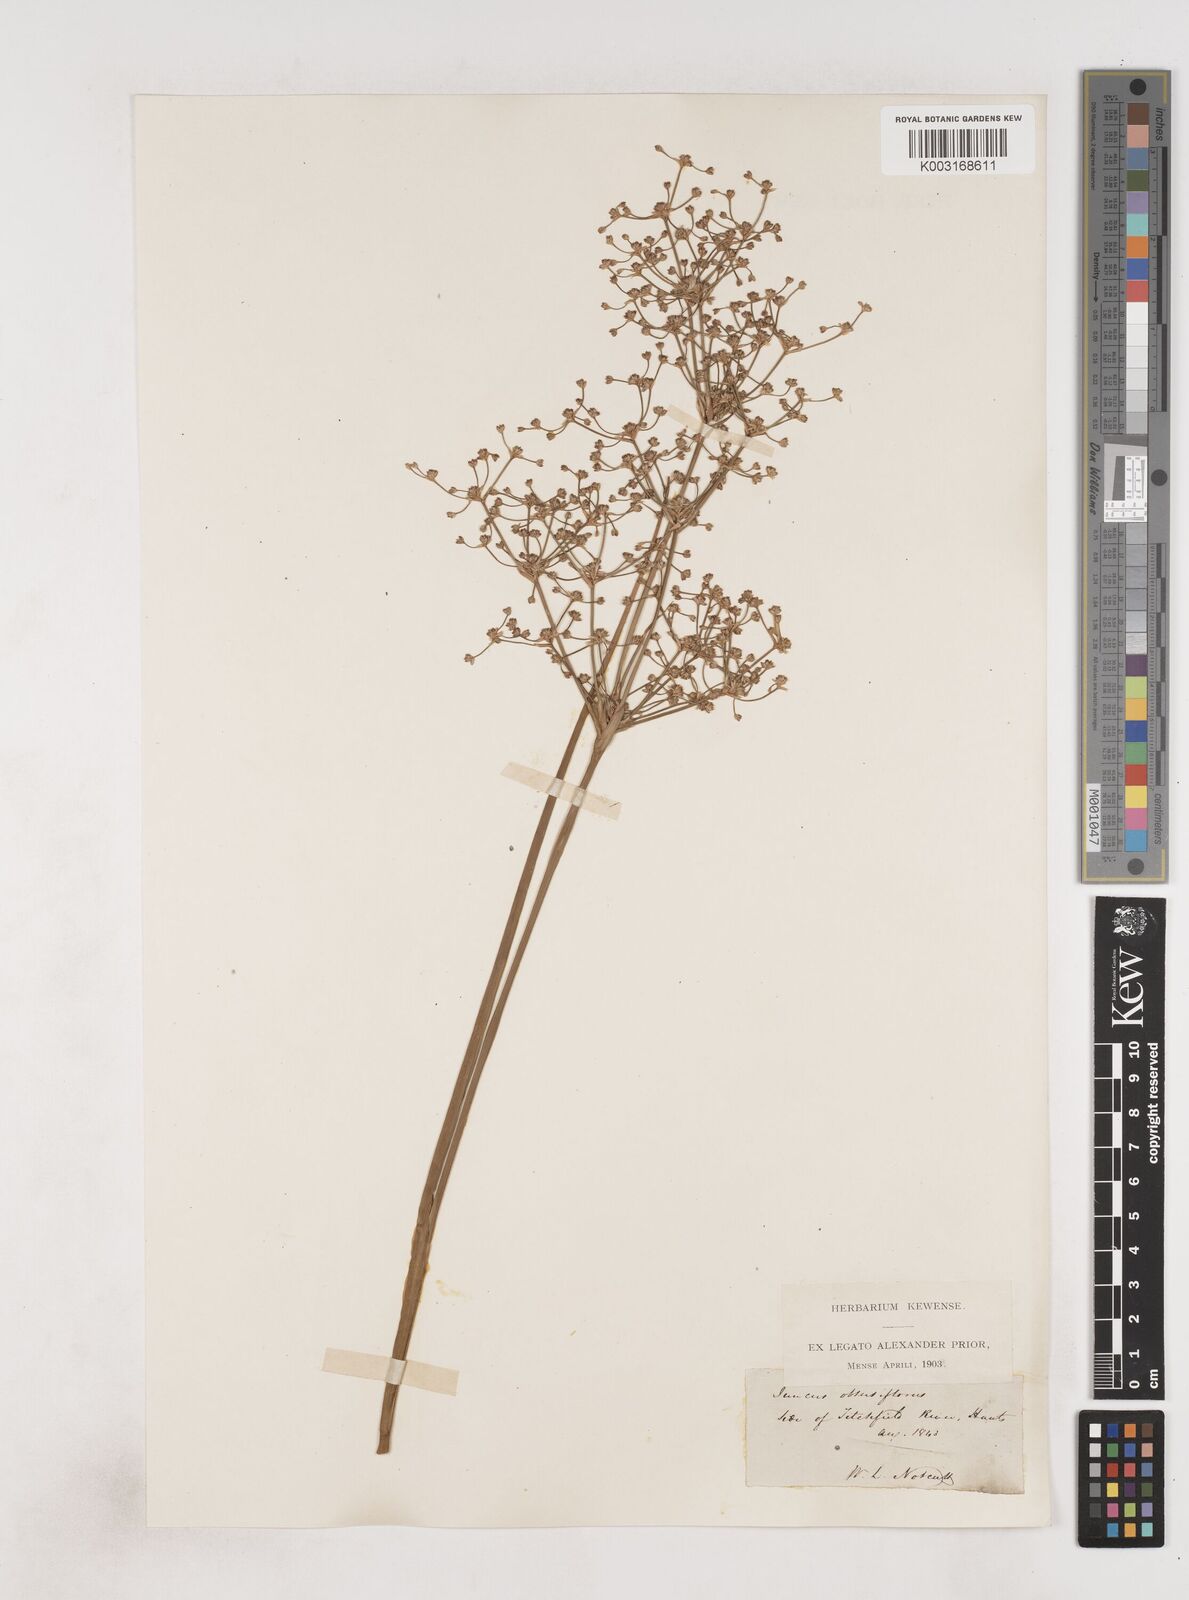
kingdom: Plantae
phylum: Tracheophyta
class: Liliopsida
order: Poales
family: Juncaceae
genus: Juncus
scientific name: Juncus subnodulosus
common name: Blunt-flowered rush
